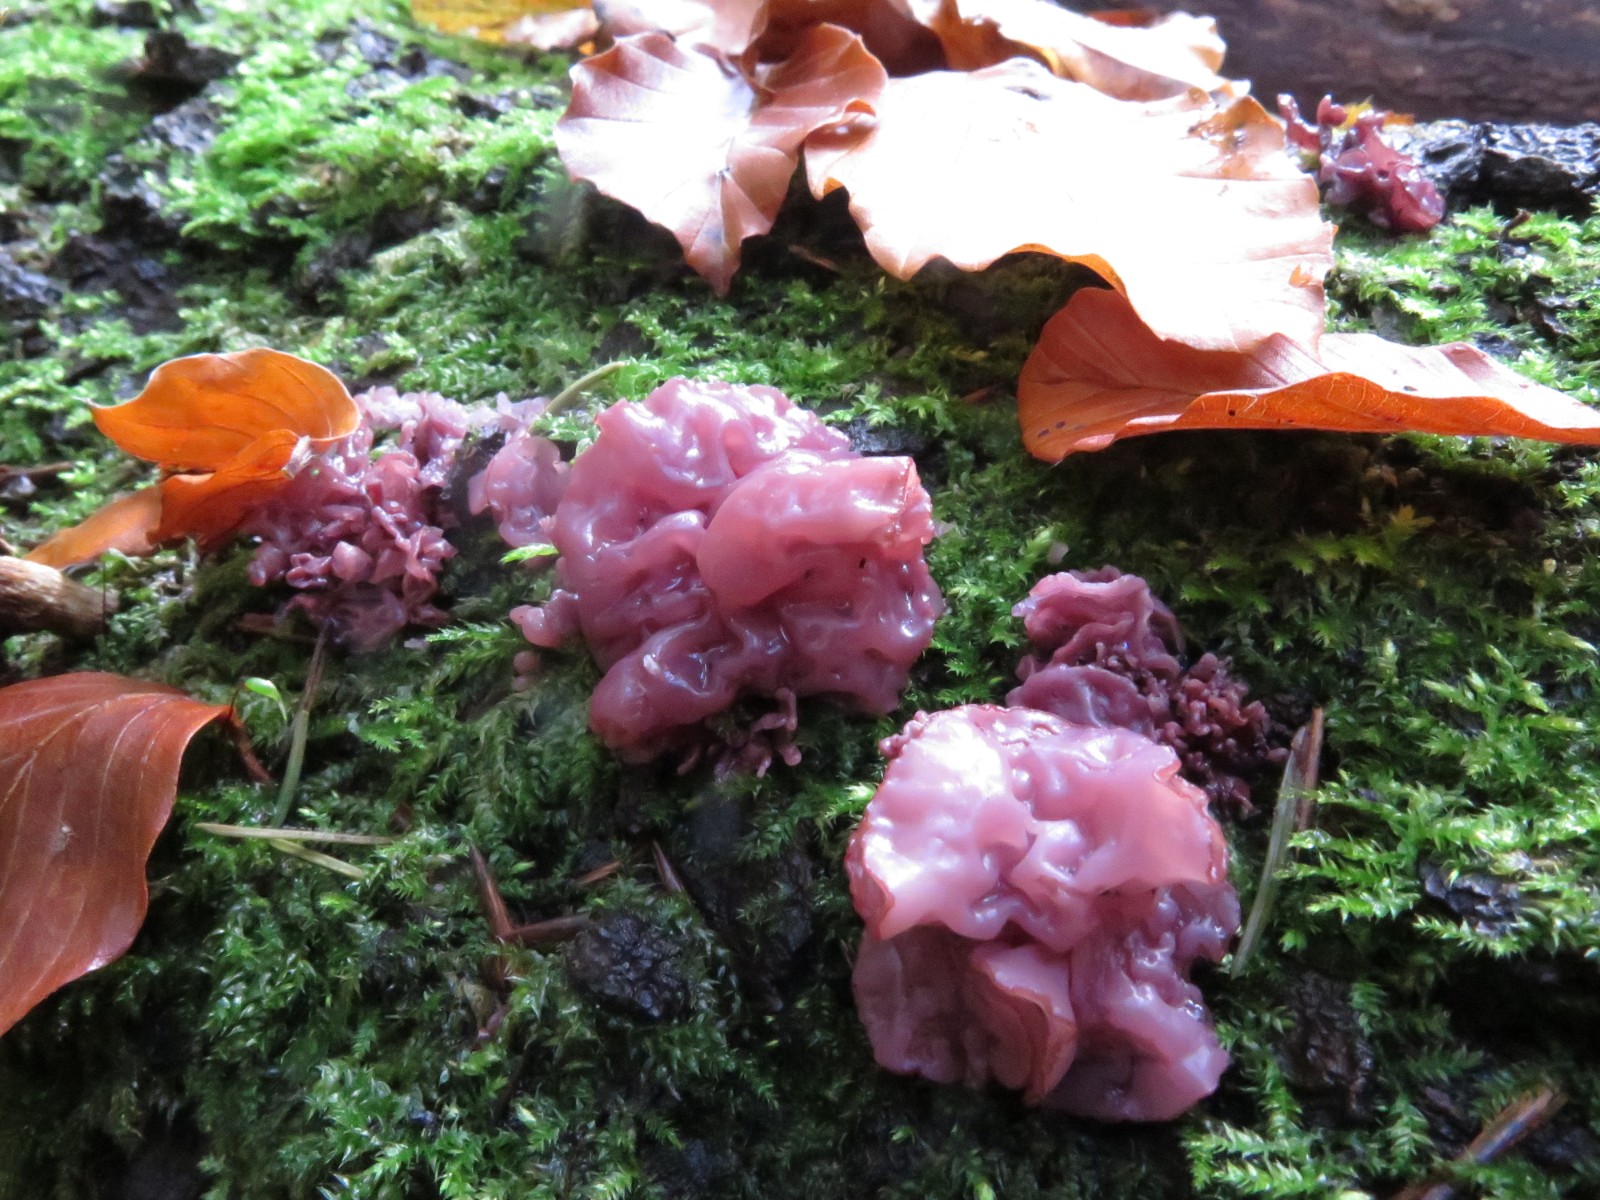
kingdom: Fungi
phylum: Ascomycota
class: Leotiomycetes
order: Helotiales
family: Gelatinodiscaceae
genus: Ascocoryne
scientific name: Ascocoryne cylichnium
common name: stor sejskive
